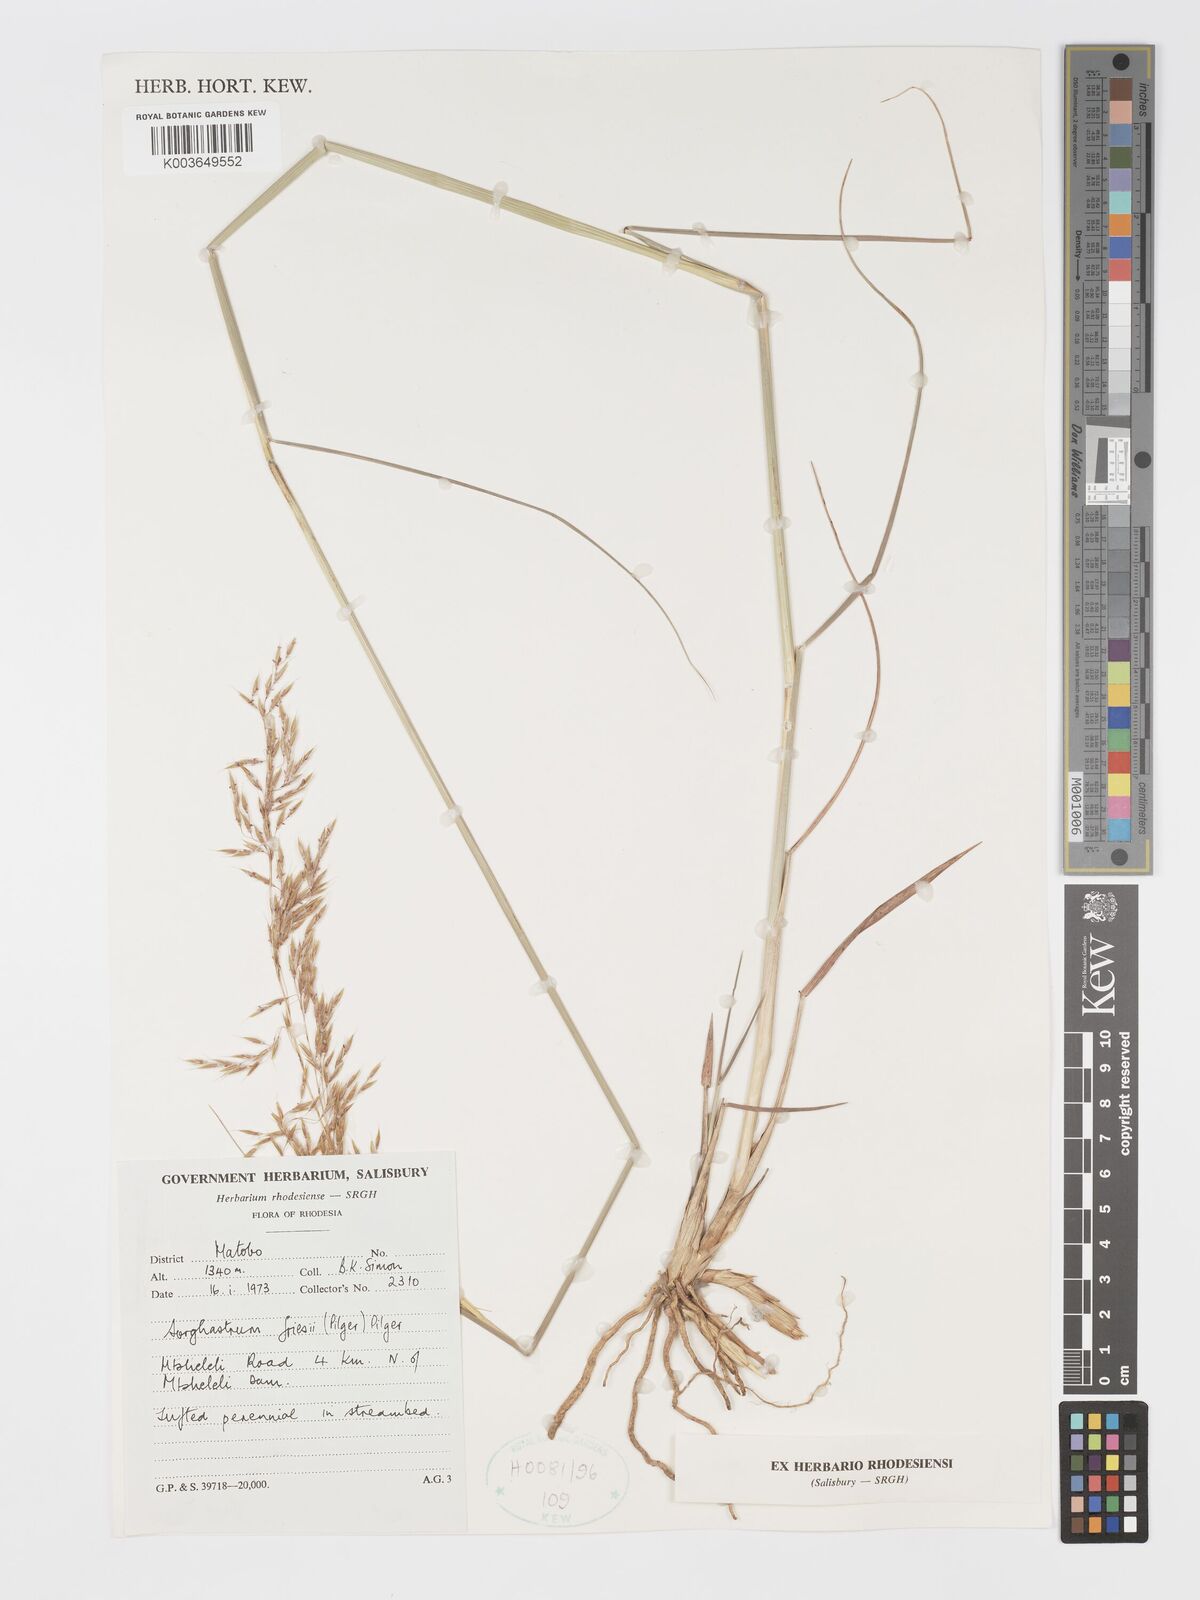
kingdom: Plantae
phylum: Tracheophyta
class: Liliopsida
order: Poales
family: Poaceae
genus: Sorghastrum
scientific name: Sorghastrum nudipes
